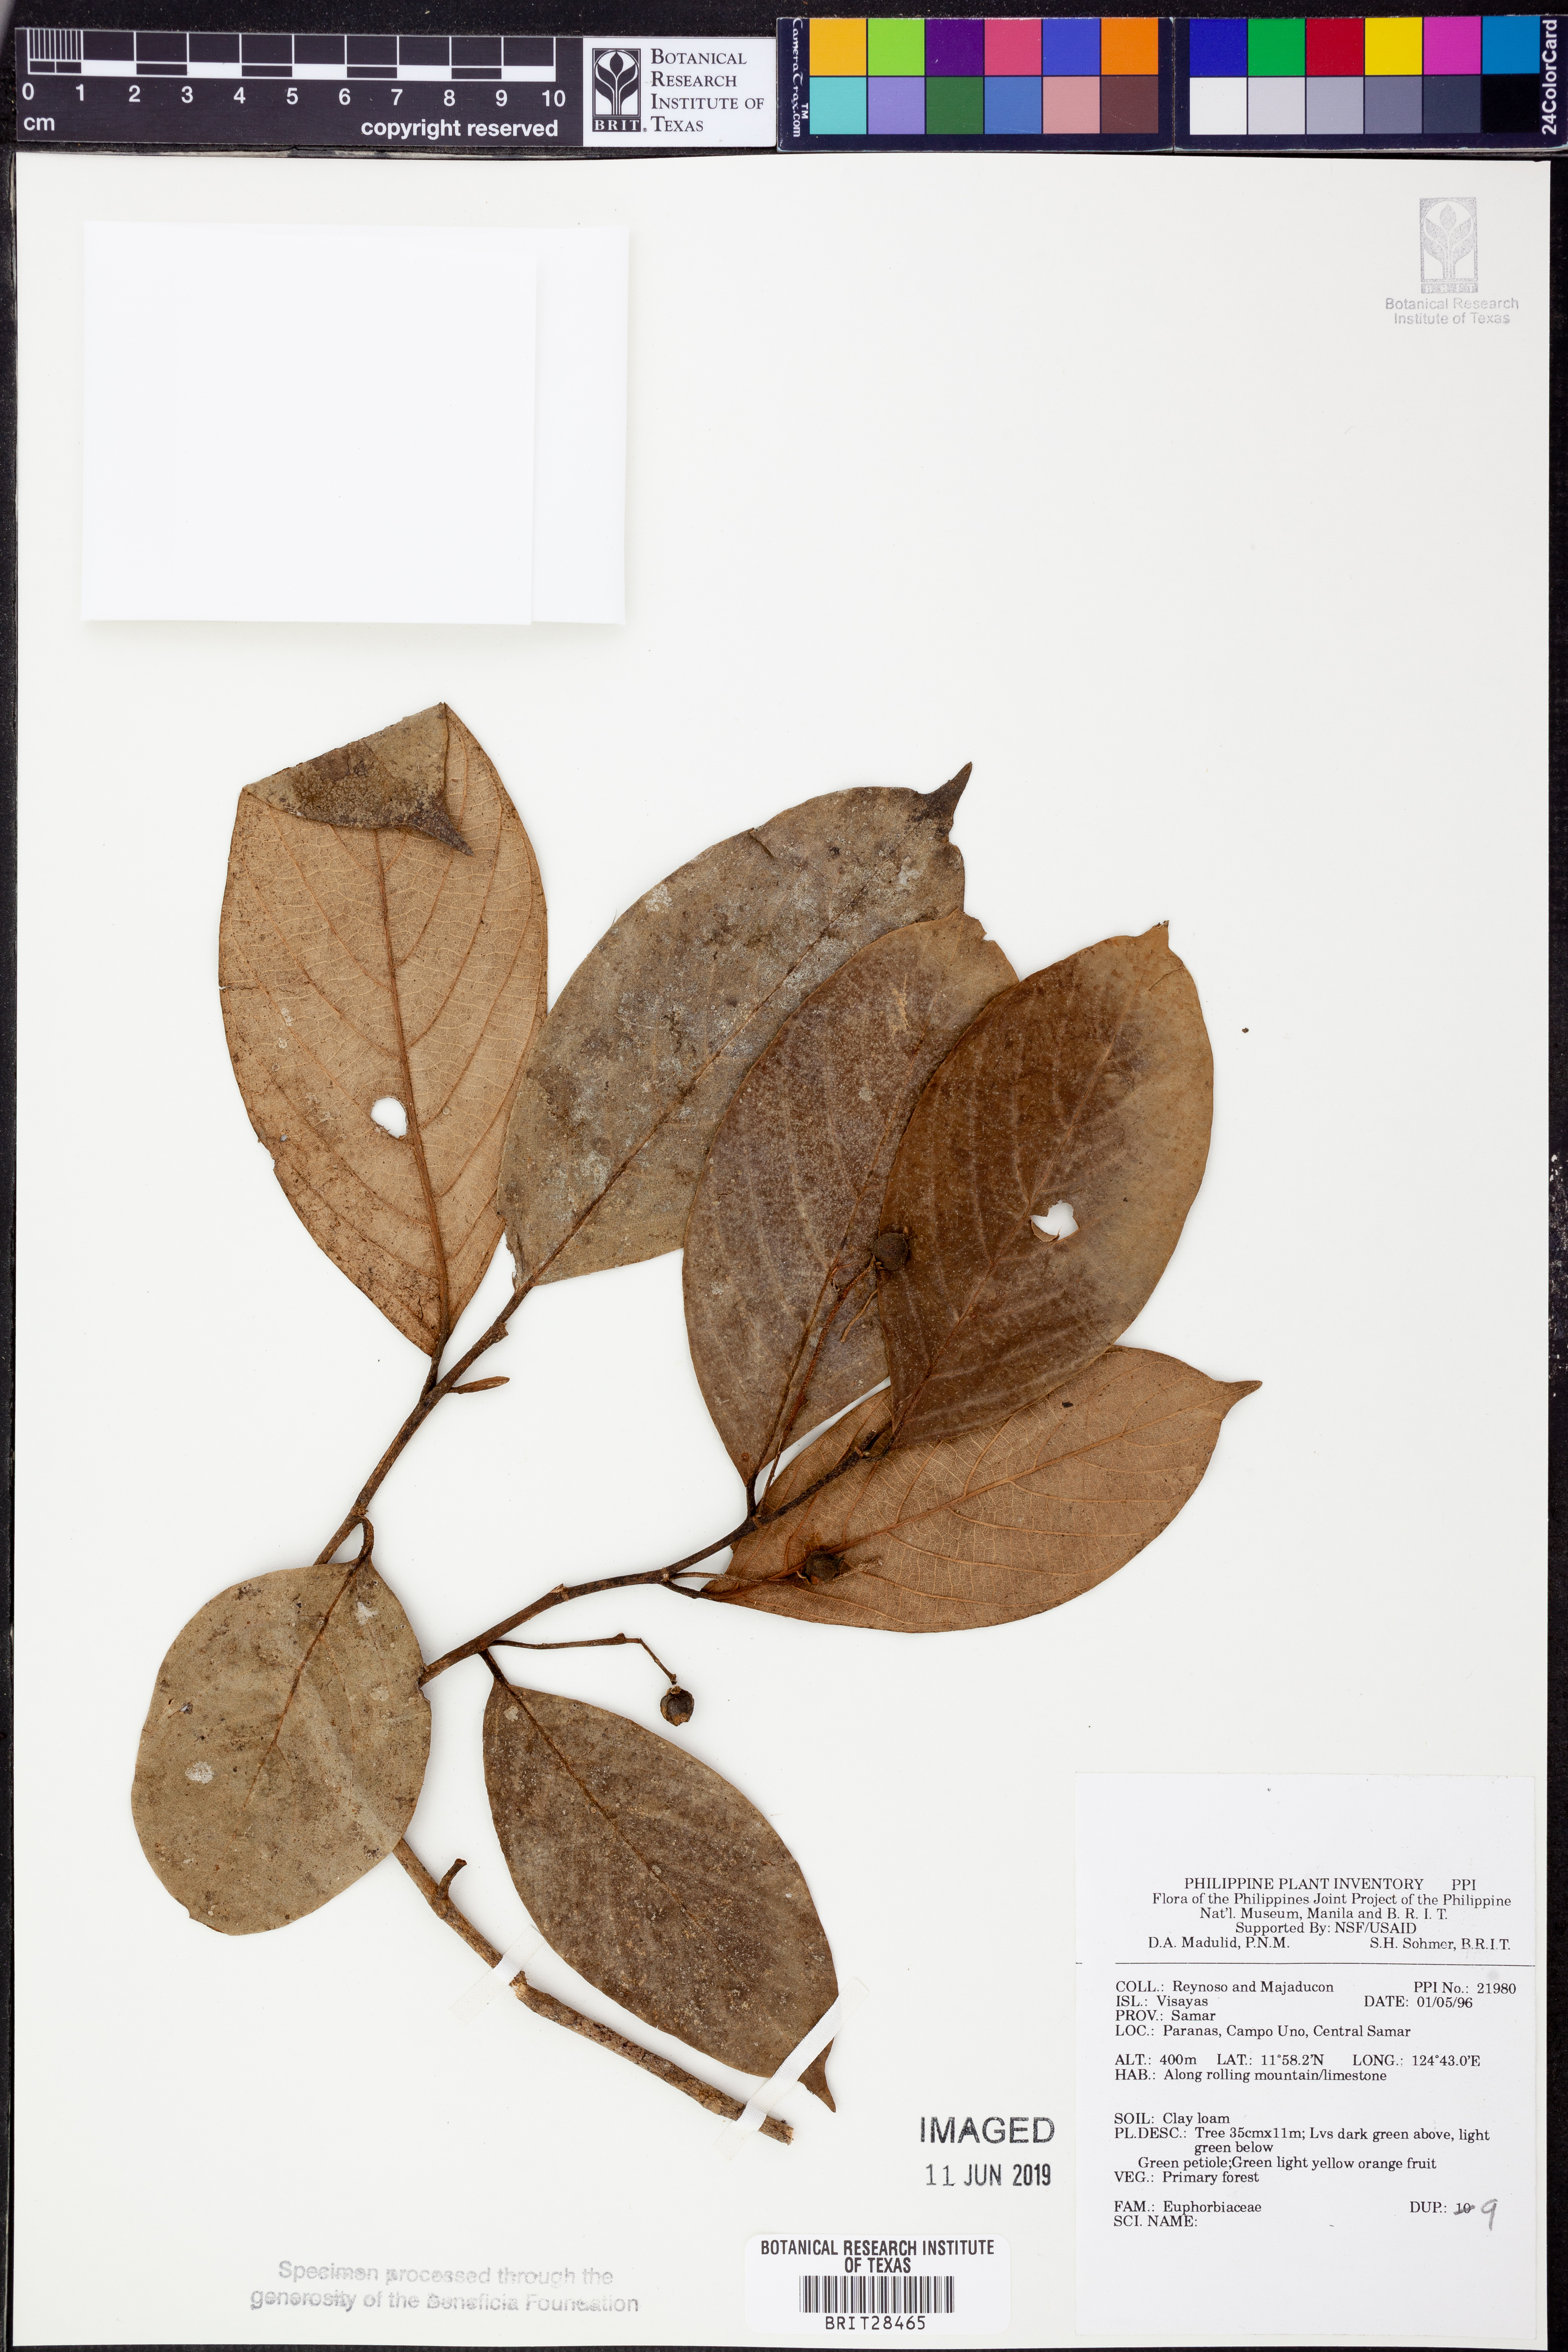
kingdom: Plantae
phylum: Tracheophyta
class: Magnoliopsida
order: Malpighiales
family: Euphorbiaceae
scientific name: Euphorbiaceae
